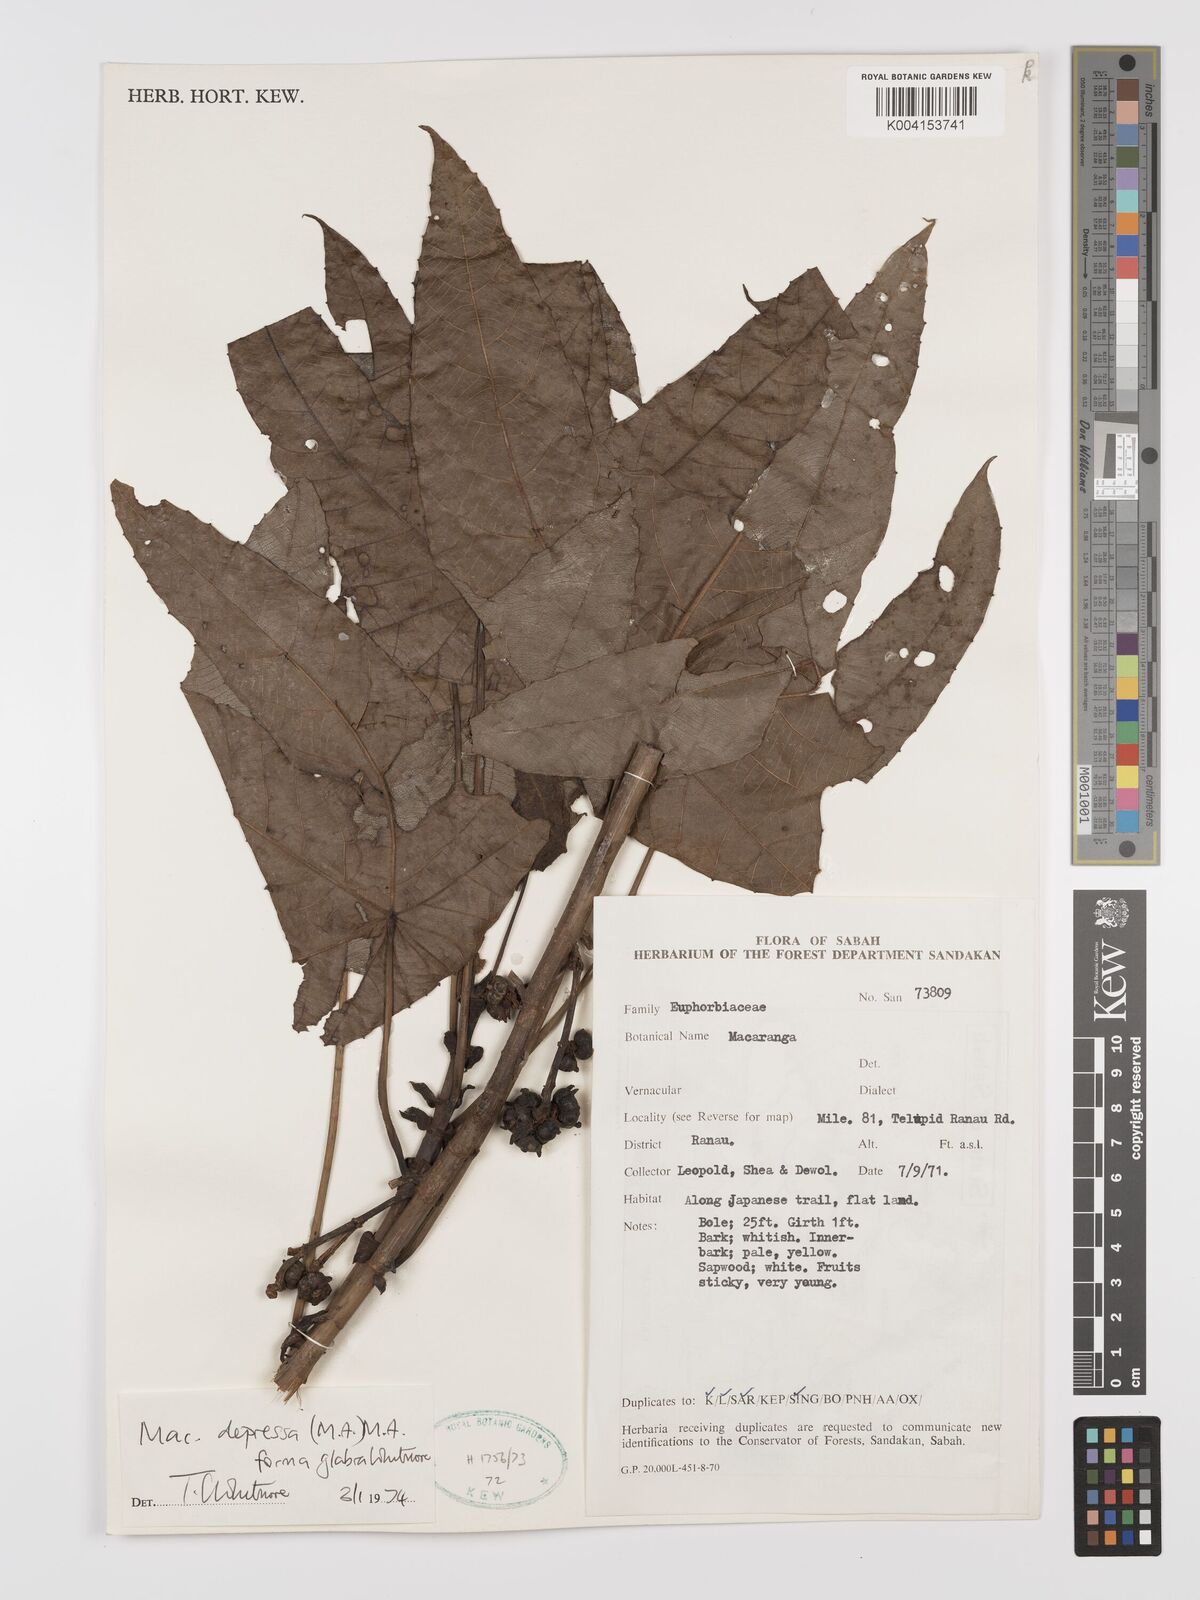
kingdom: Plantae
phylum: Tracheophyta
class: Magnoliopsida
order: Malpighiales
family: Euphorbiaceae
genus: Macaranga
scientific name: Macaranga depressa
